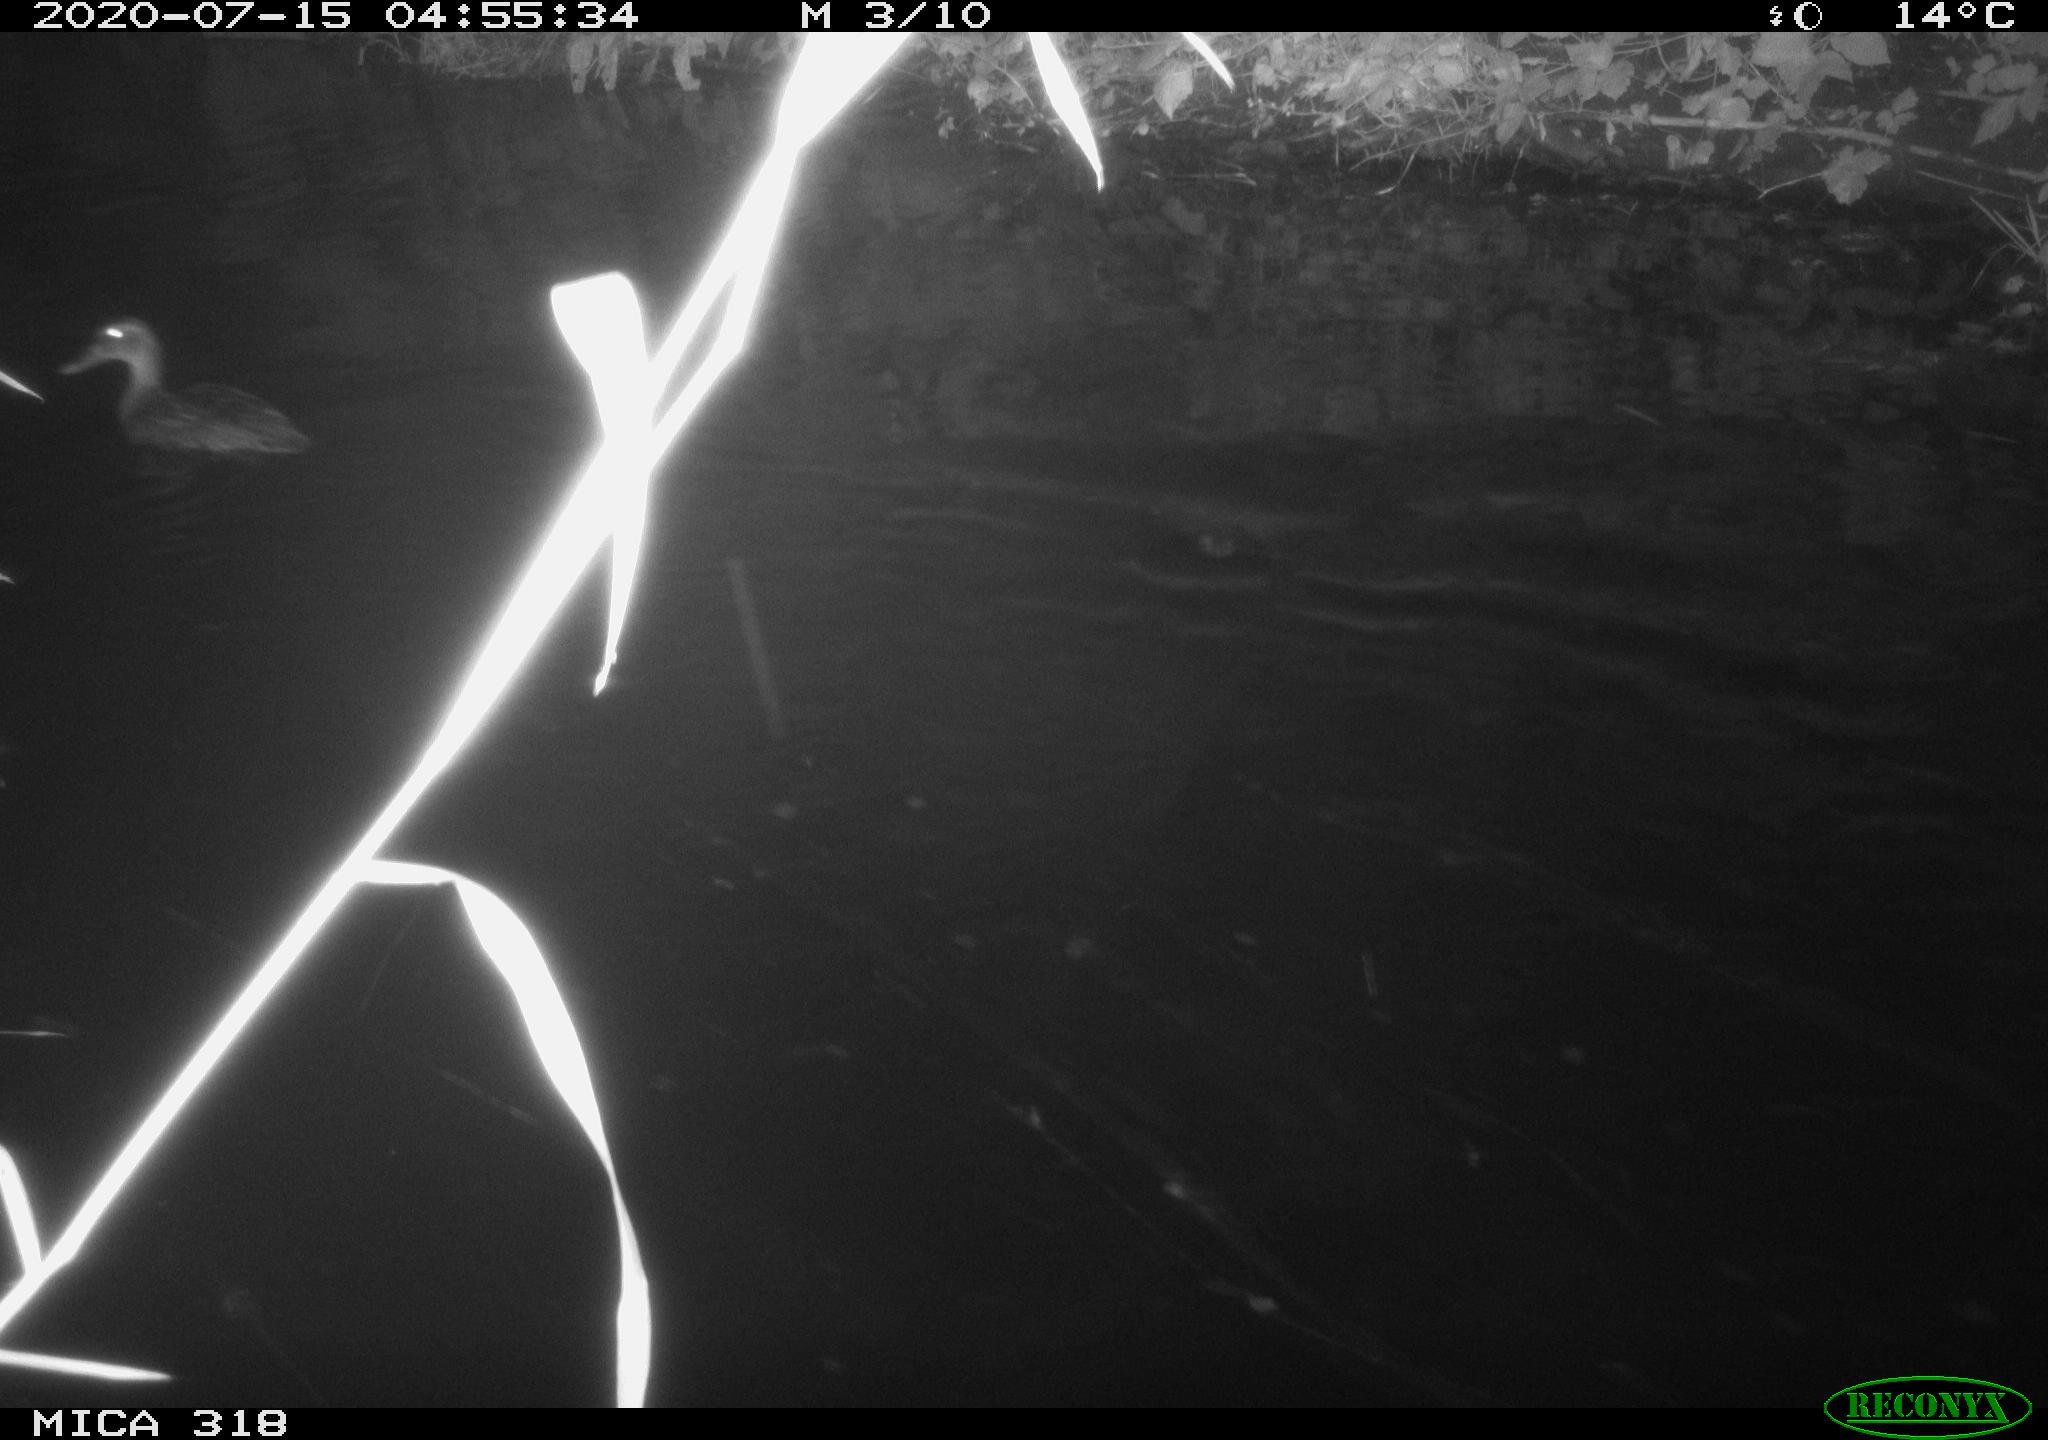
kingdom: Animalia
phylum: Chordata
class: Aves
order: Anseriformes
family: Anatidae
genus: Mareca
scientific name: Mareca strepera
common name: Gadwall
